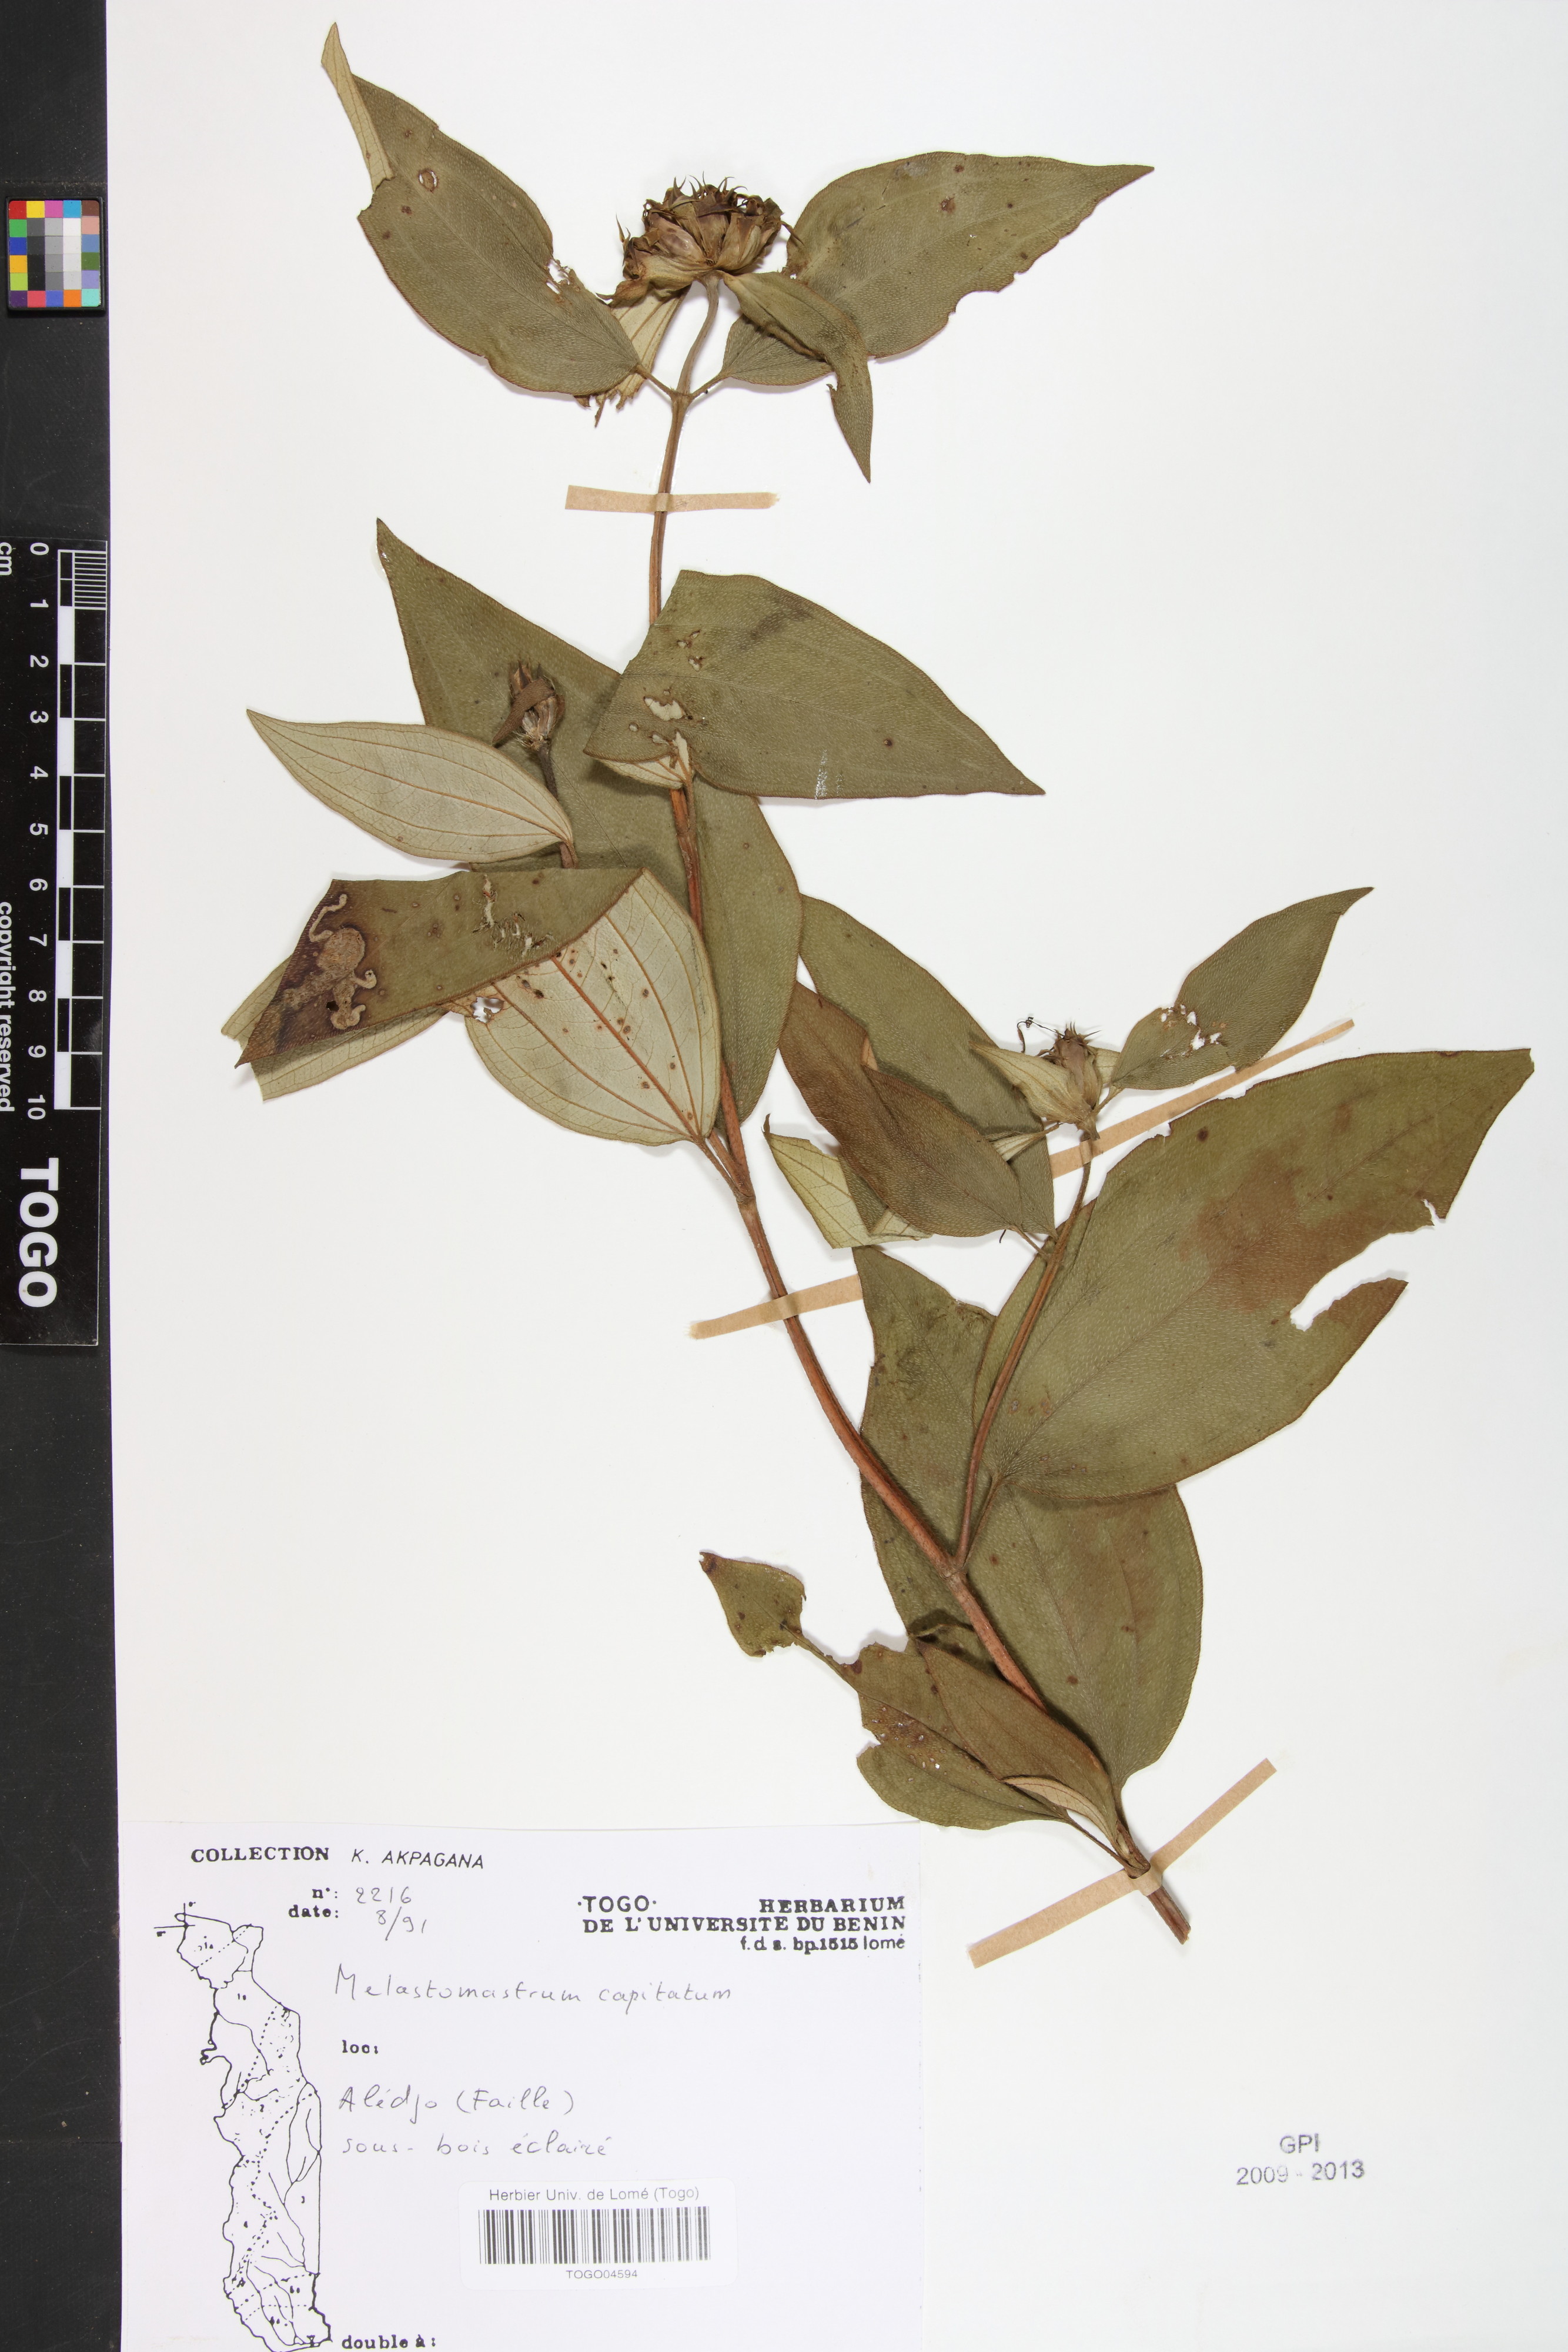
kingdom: Plantae
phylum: Tracheophyta
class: Magnoliopsida
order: Myrtales
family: Melastomataceae
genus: Melastomastrum
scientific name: Melastomastrum capitatum
